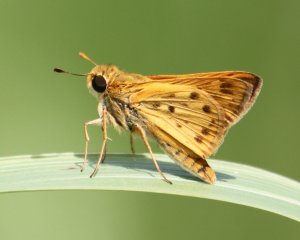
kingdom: Animalia
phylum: Arthropoda
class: Insecta
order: Lepidoptera
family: Hesperiidae
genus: Hylephila
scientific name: Hylephila phyleus
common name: Fiery Skipper
